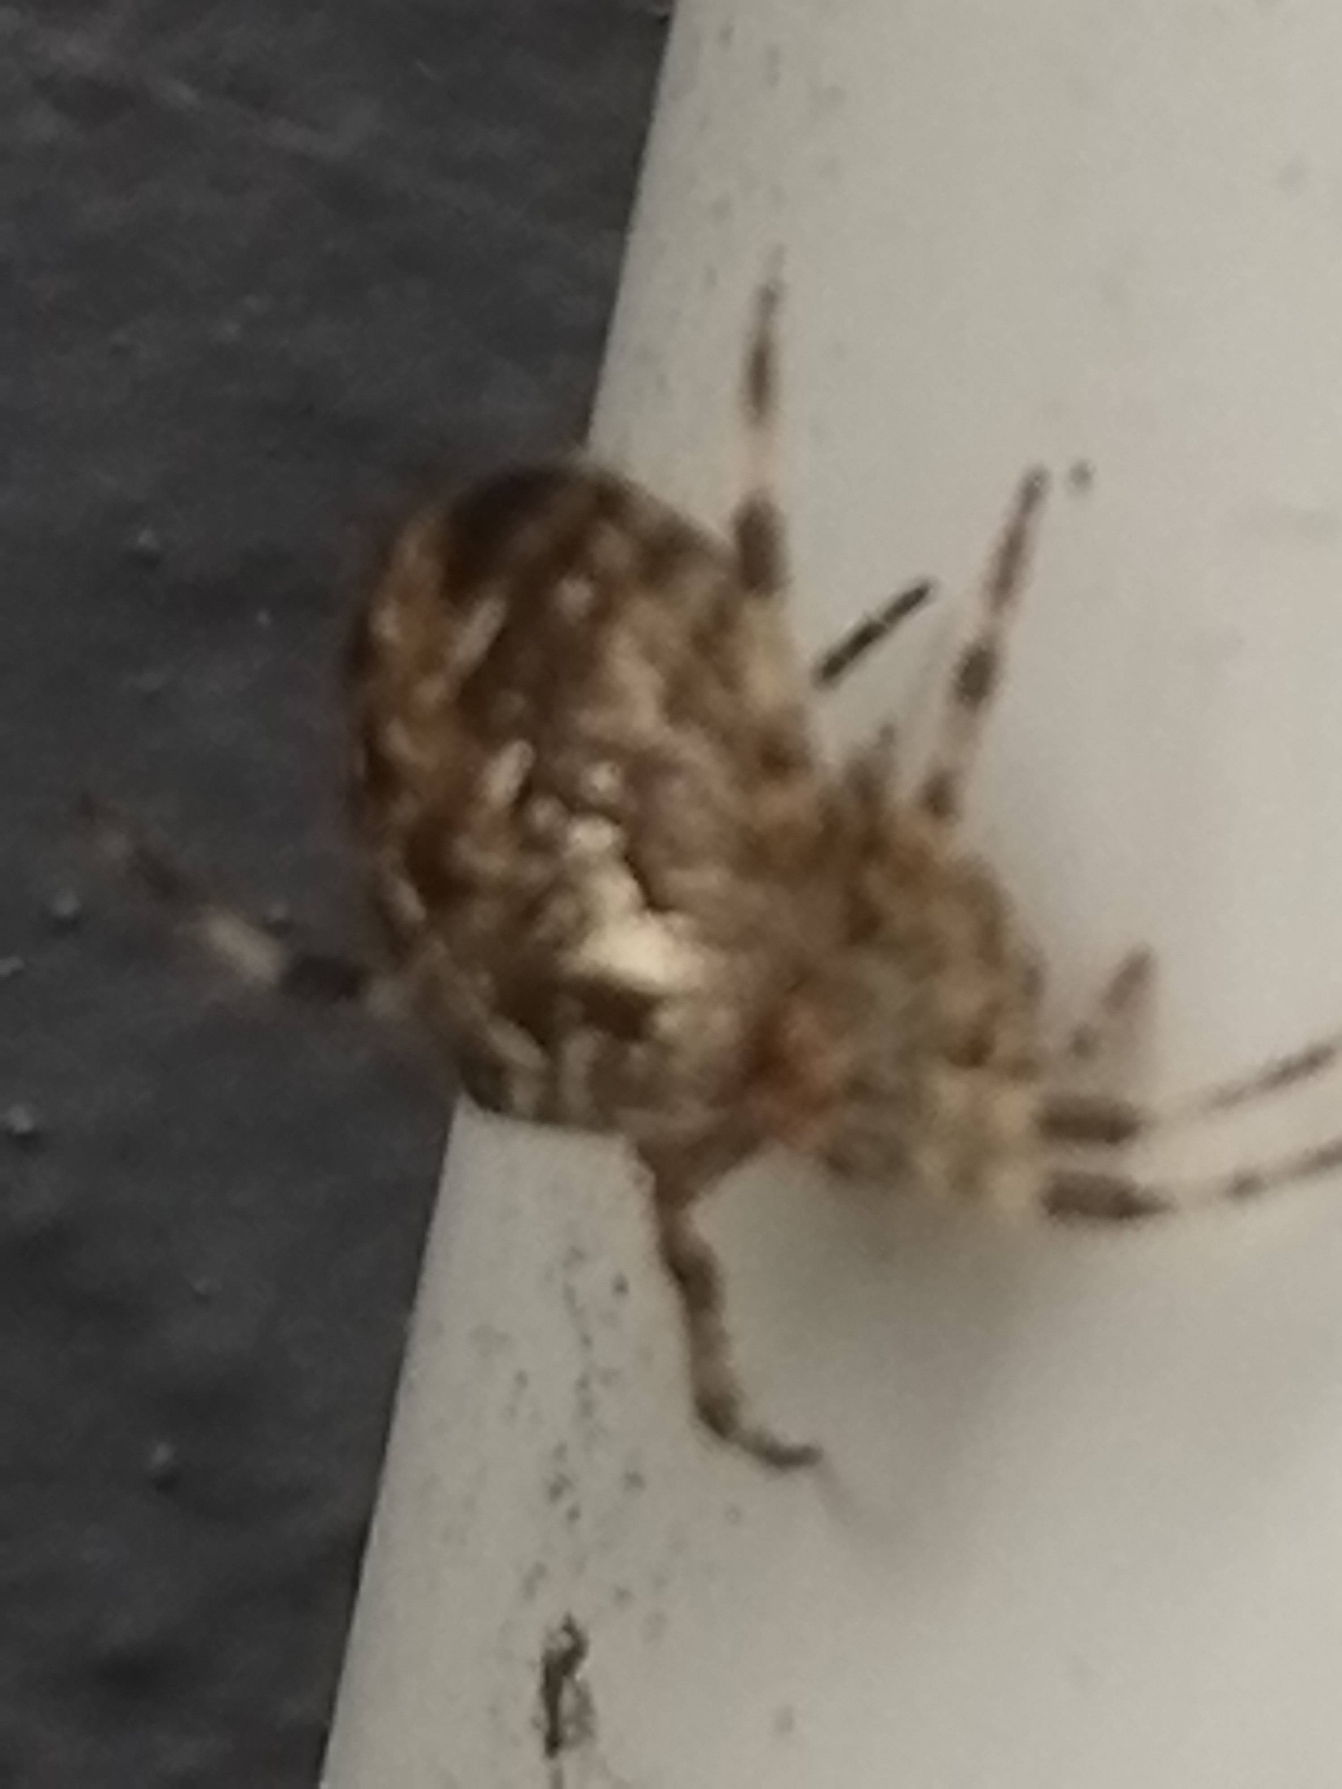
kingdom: Animalia
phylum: Arthropoda
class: Arachnida
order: Araneae
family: Araneidae
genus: Araneus
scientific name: Araneus diadematus
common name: Korsedderkop
